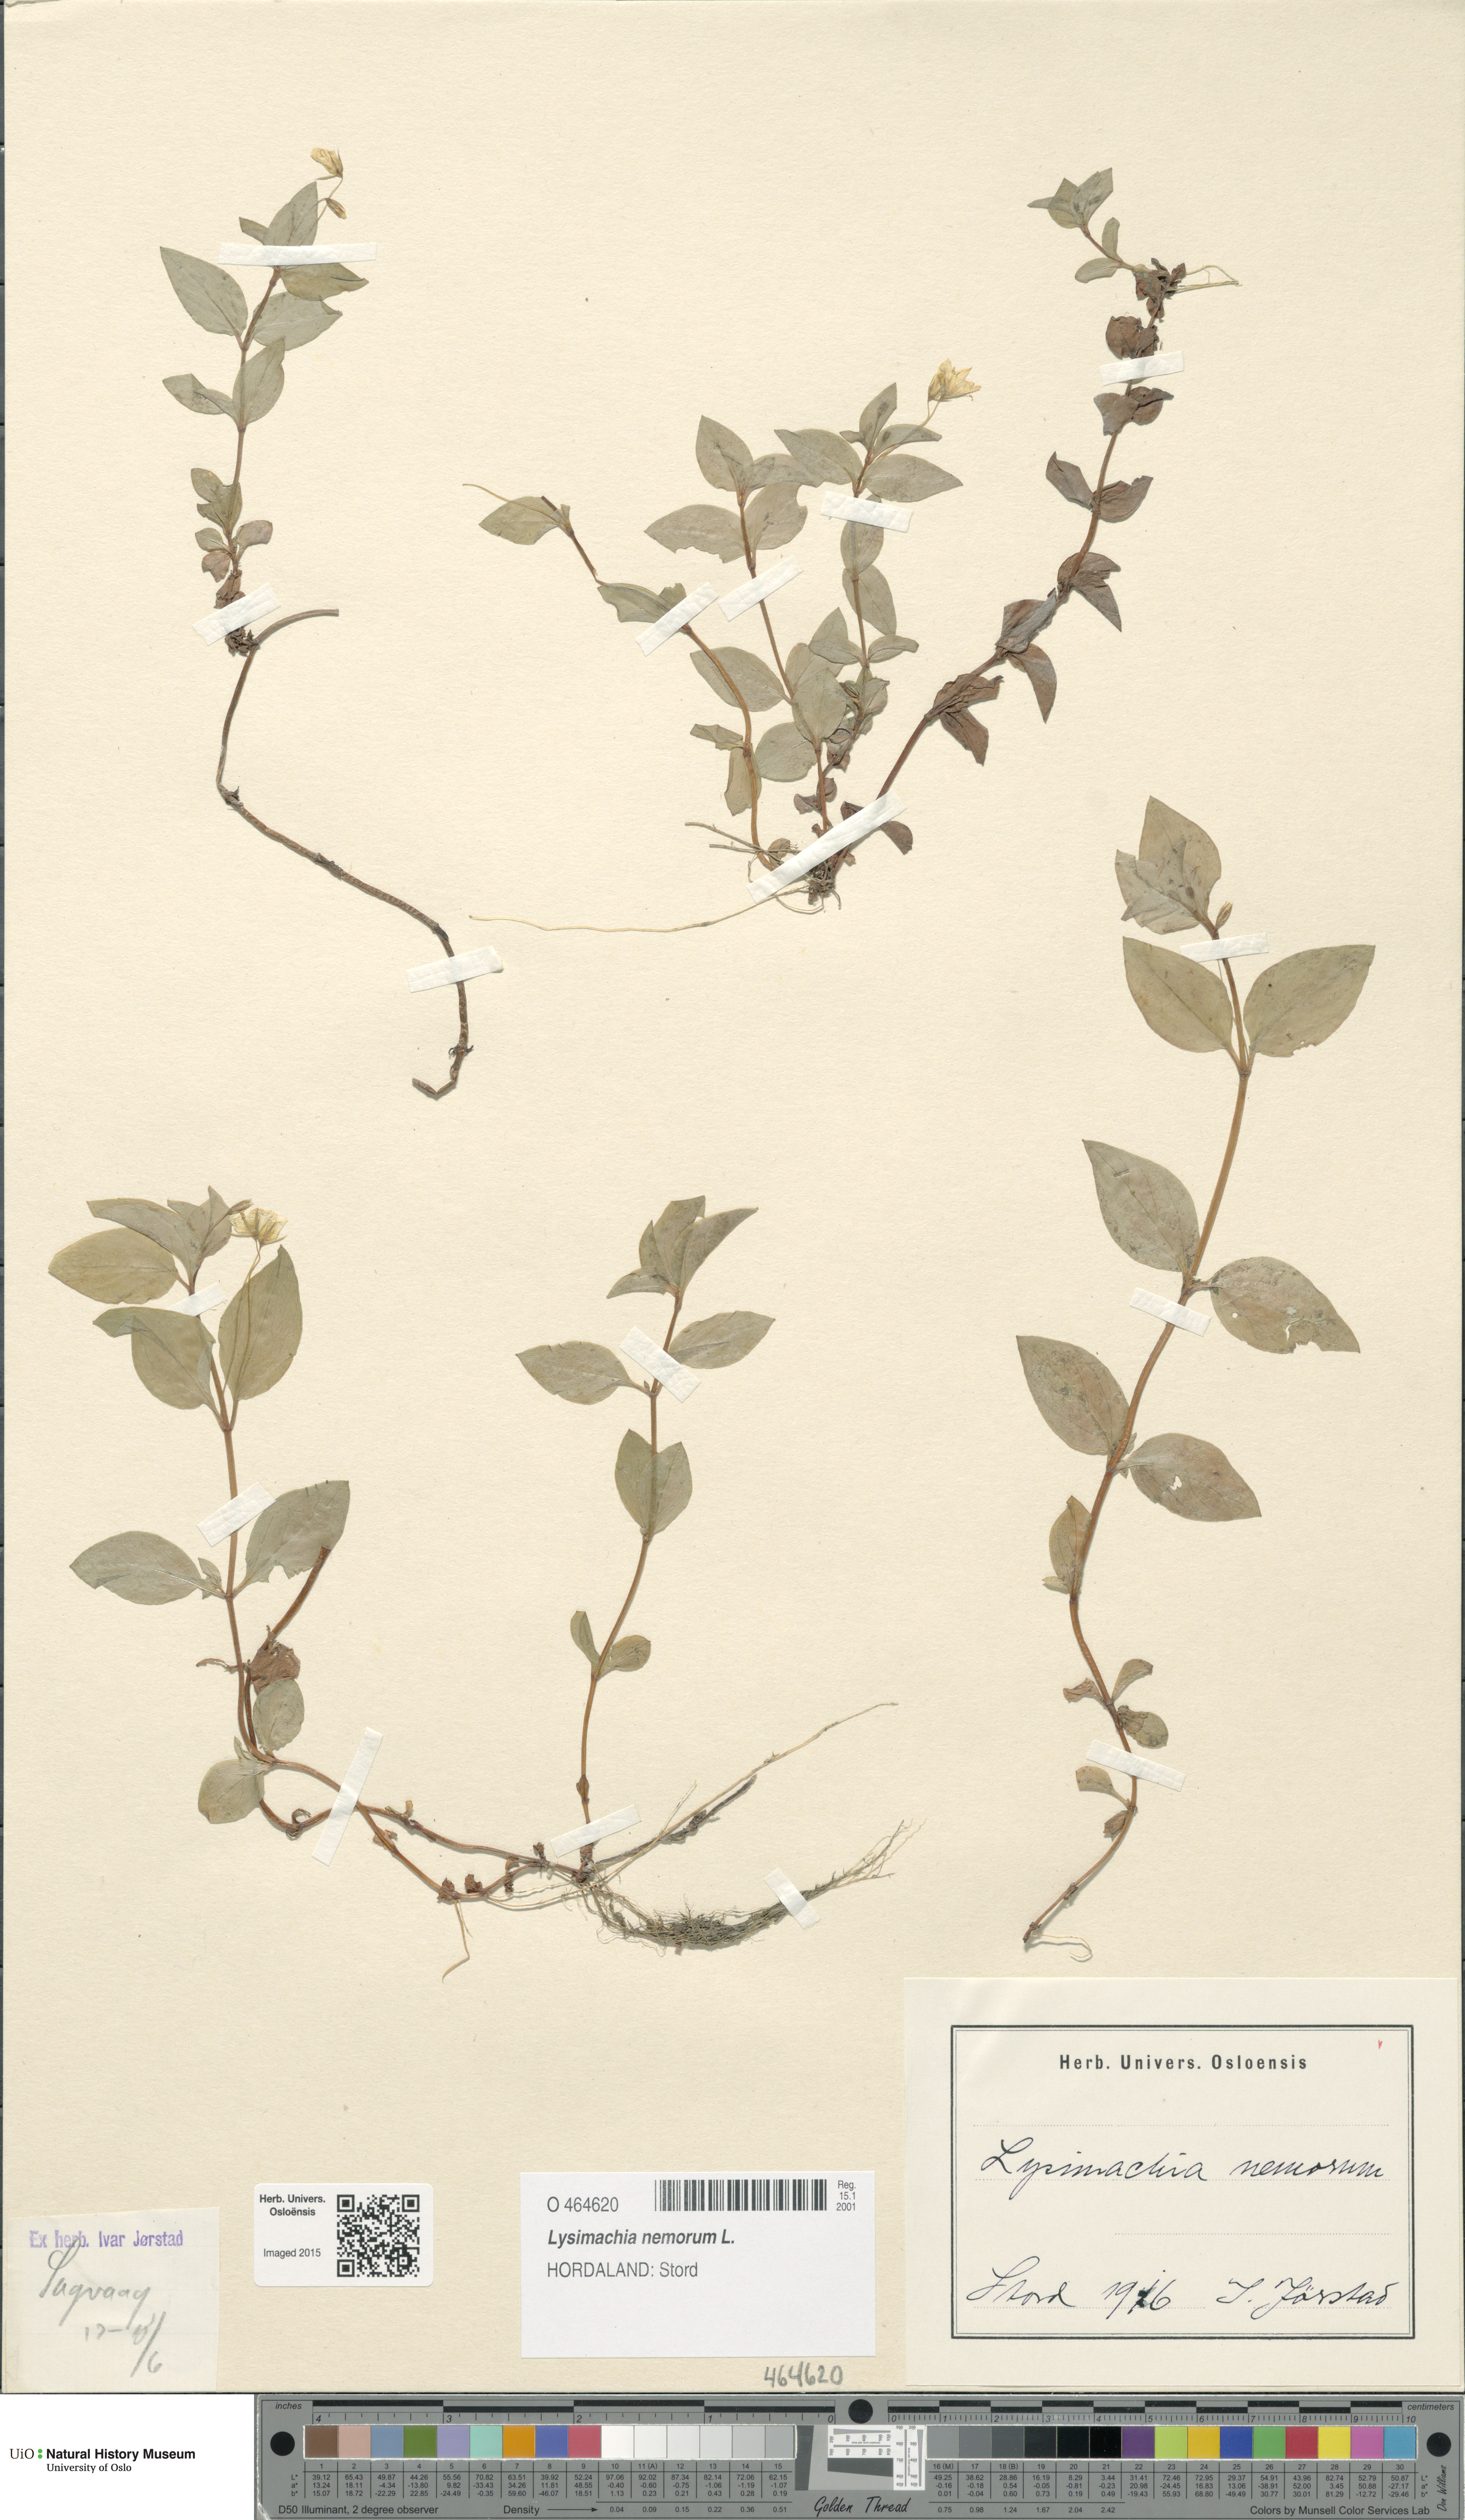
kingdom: Plantae
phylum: Tracheophyta
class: Magnoliopsida
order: Ericales
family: Primulaceae
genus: Lysimachia
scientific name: Lysimachia nemorum
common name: Yellow pimpernel
